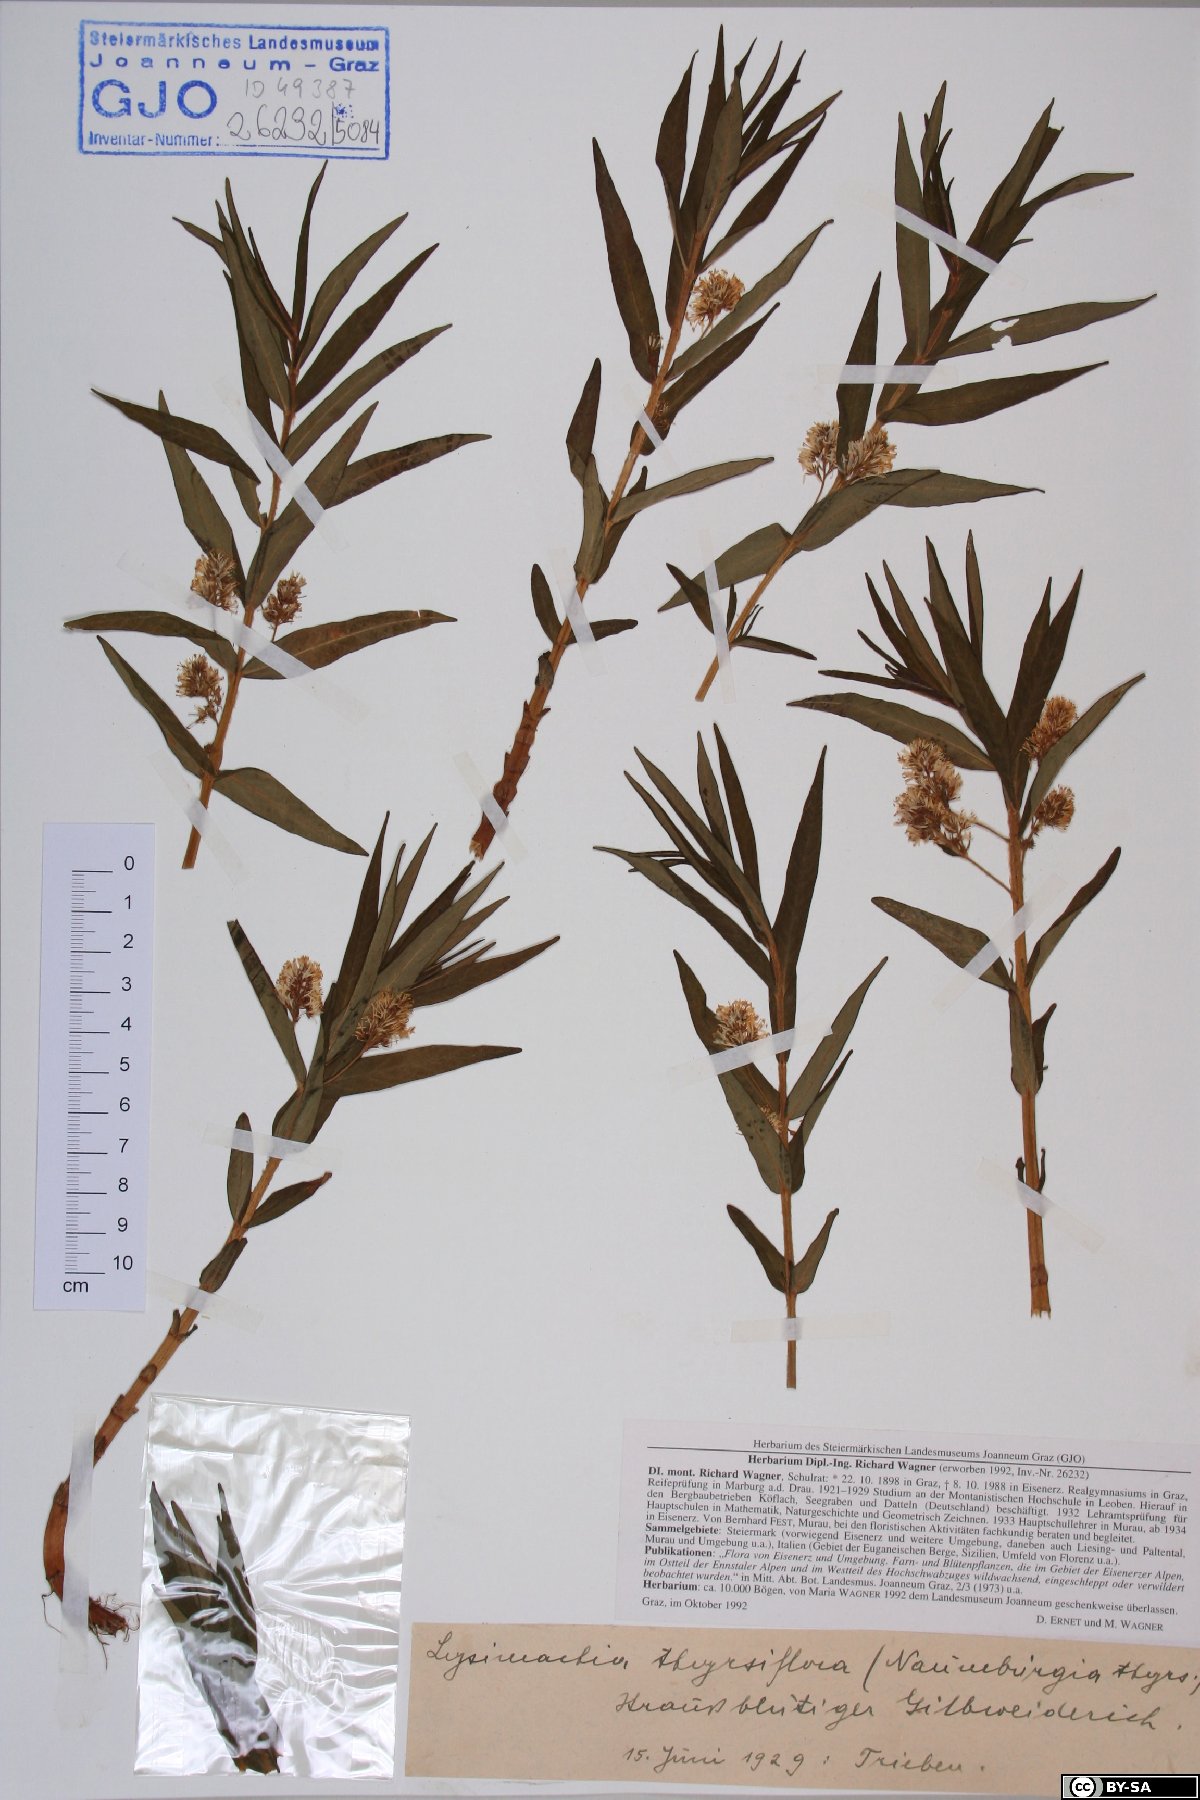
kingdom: Plantae
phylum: Tracheophyta
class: Magnoliopsida
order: Ericales
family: Primulaceae
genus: Lysimachia
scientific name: Lysimachia thyrsiflora
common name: Tufted loosestrife
